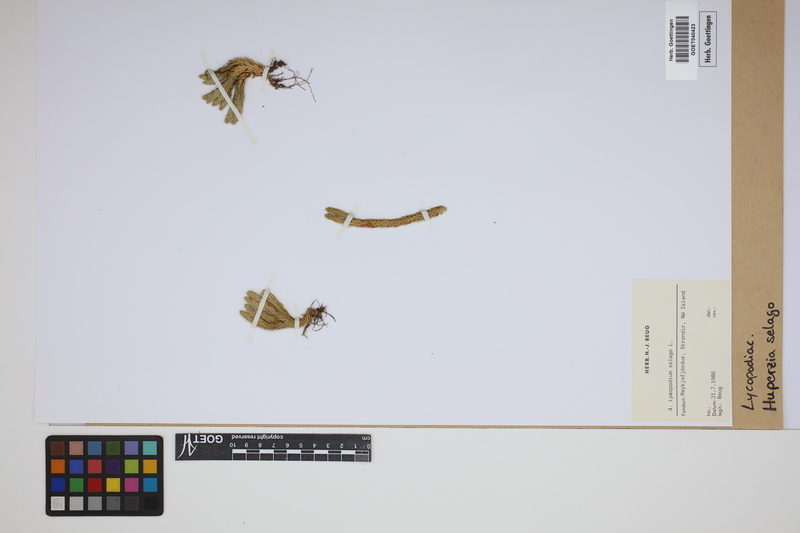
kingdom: Plantae
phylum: Tracheophyta
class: Lycopodiopsida
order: Lycopodiales
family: Lycopodiaceae
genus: Huperzia
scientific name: Huperzia selago
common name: Northern firmoss
